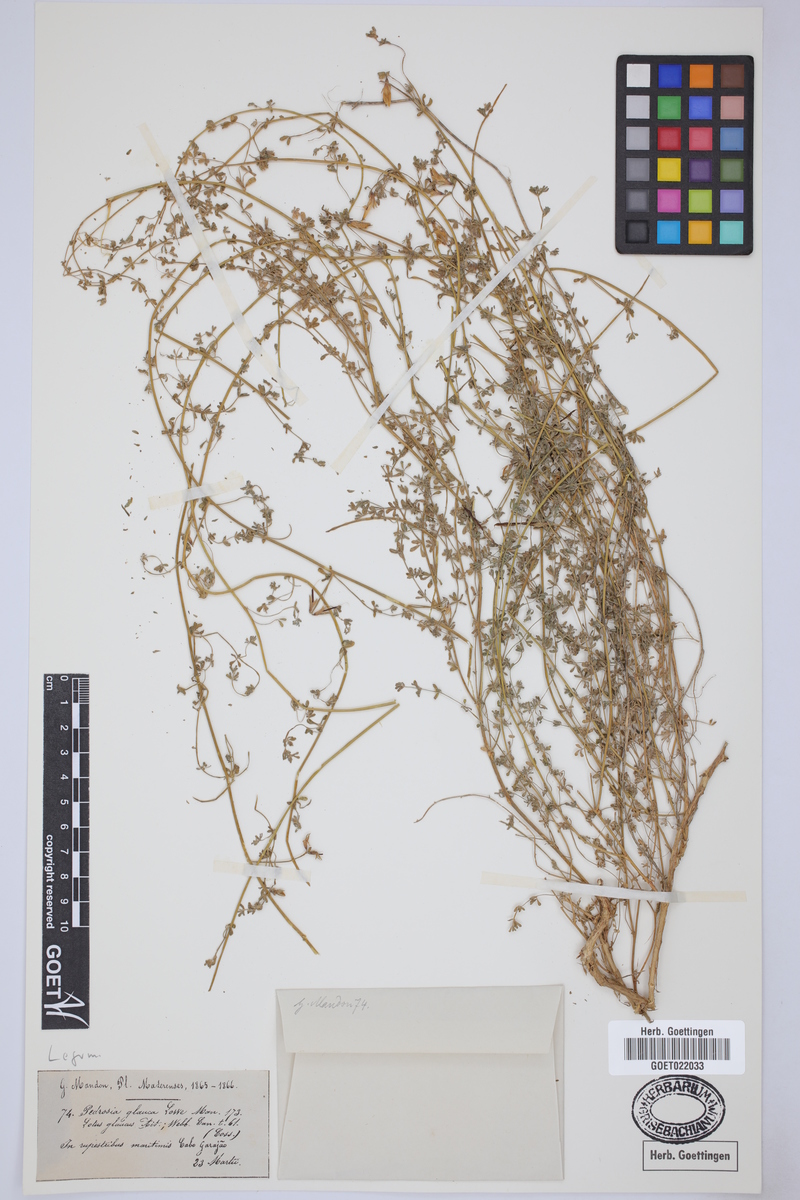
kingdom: Plantae
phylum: Tracheophyta
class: Magnoliopsida
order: Fabales
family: Fabaceae
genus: Lotus
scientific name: Lotus glaucus
